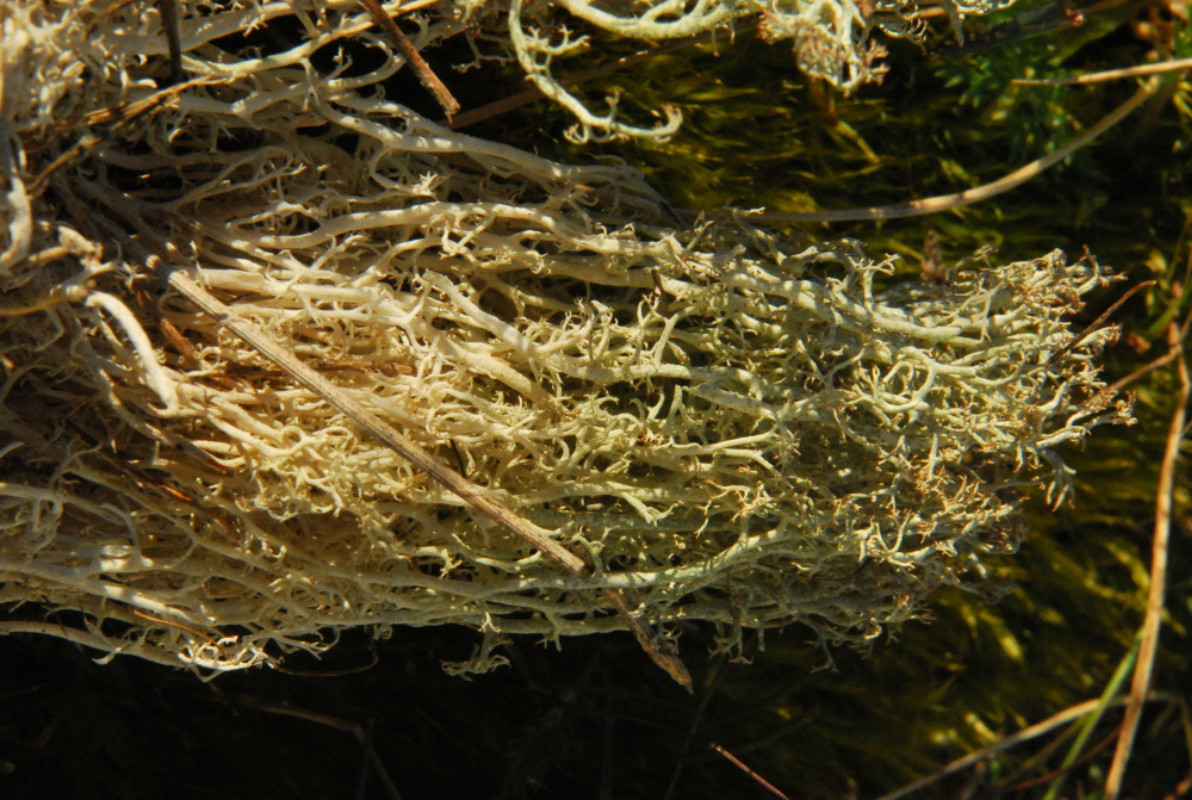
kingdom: Fungi
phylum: Ascomycota
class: Lecanoromycetes
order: Lecanorales
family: Cladoniaceae
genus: Cladonia
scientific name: Cladonia ciliata
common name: spinkel rensdyrlav
